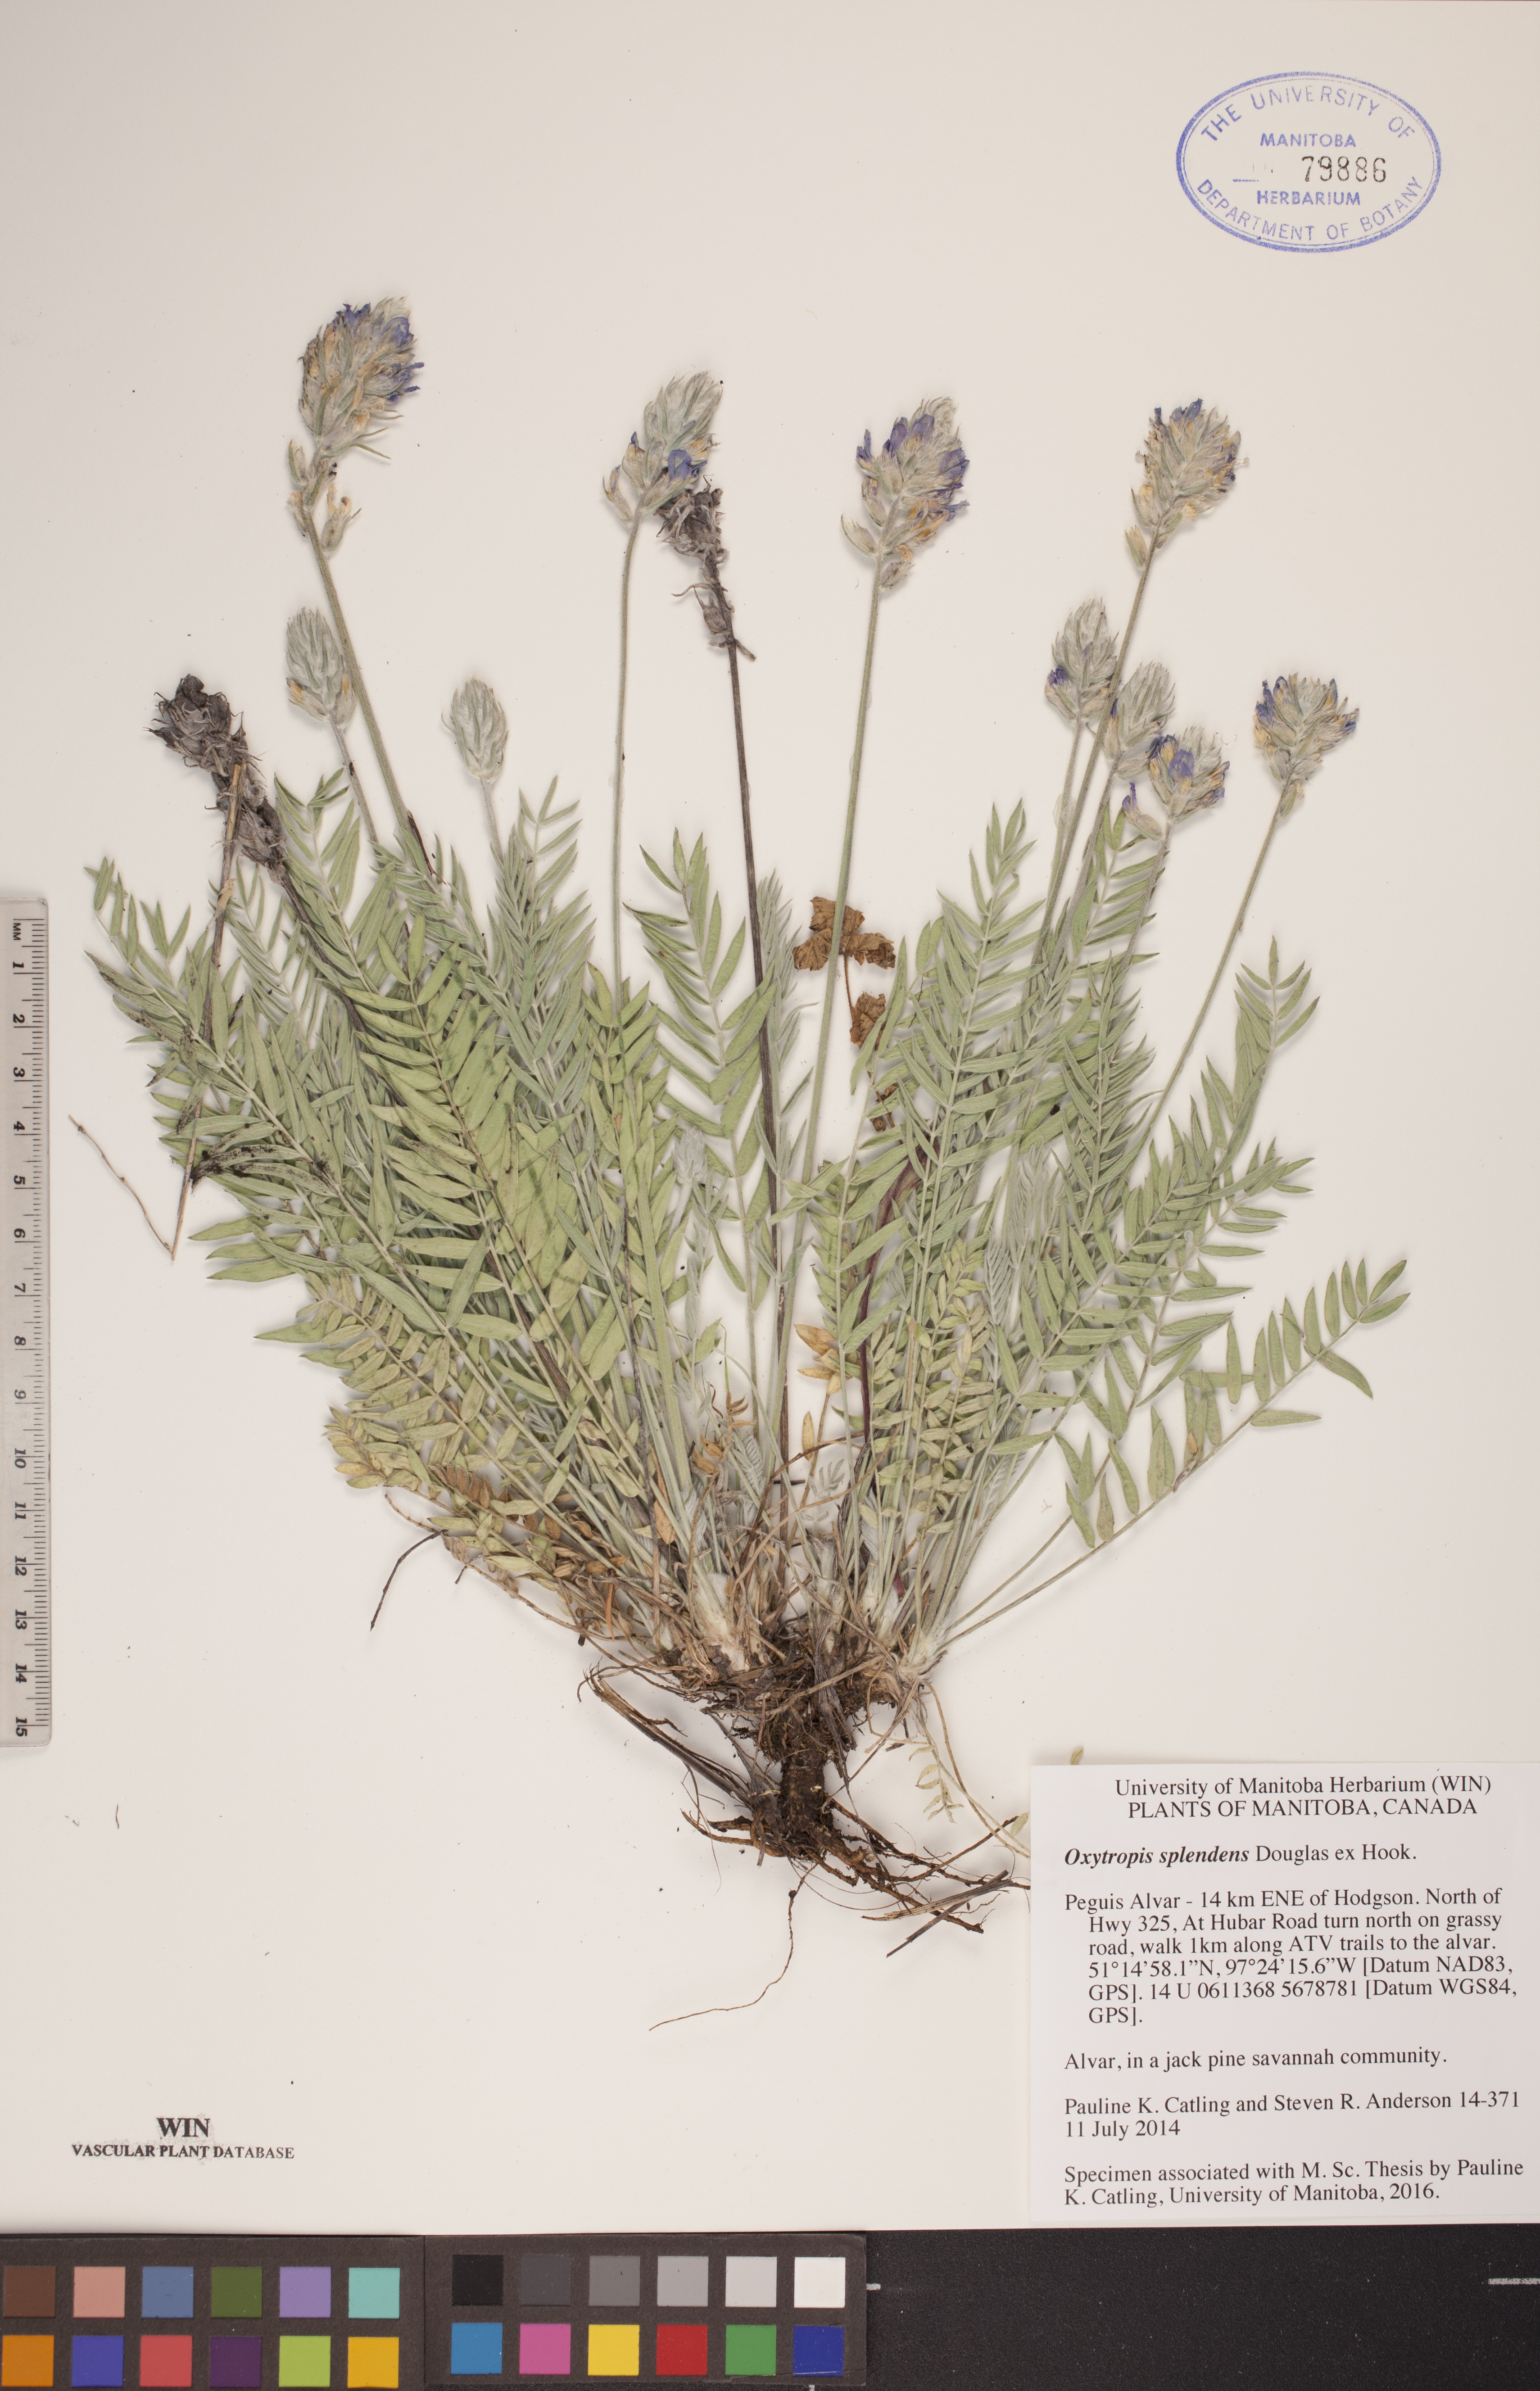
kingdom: Plantae
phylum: Tracheophyta
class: Magnoliopsida
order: Fabales
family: Fabaceae
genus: Oxytropis
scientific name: Oxytropis splendens
